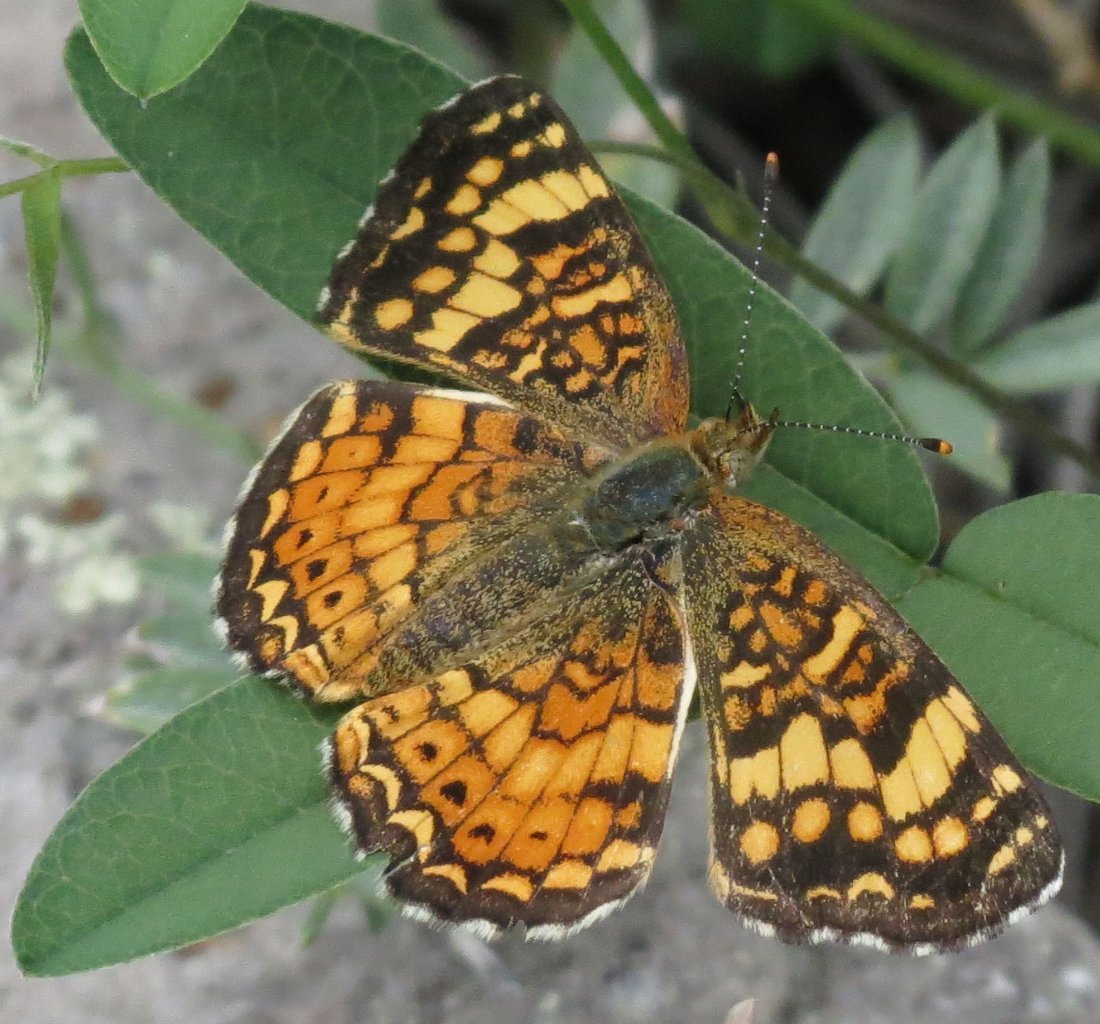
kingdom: Animalia
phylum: Arthropoda
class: Insecta
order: Lepidoptera
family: Nymphalidae
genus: Eresia
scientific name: Eresia aveyrona
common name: Mylitta Crescent
